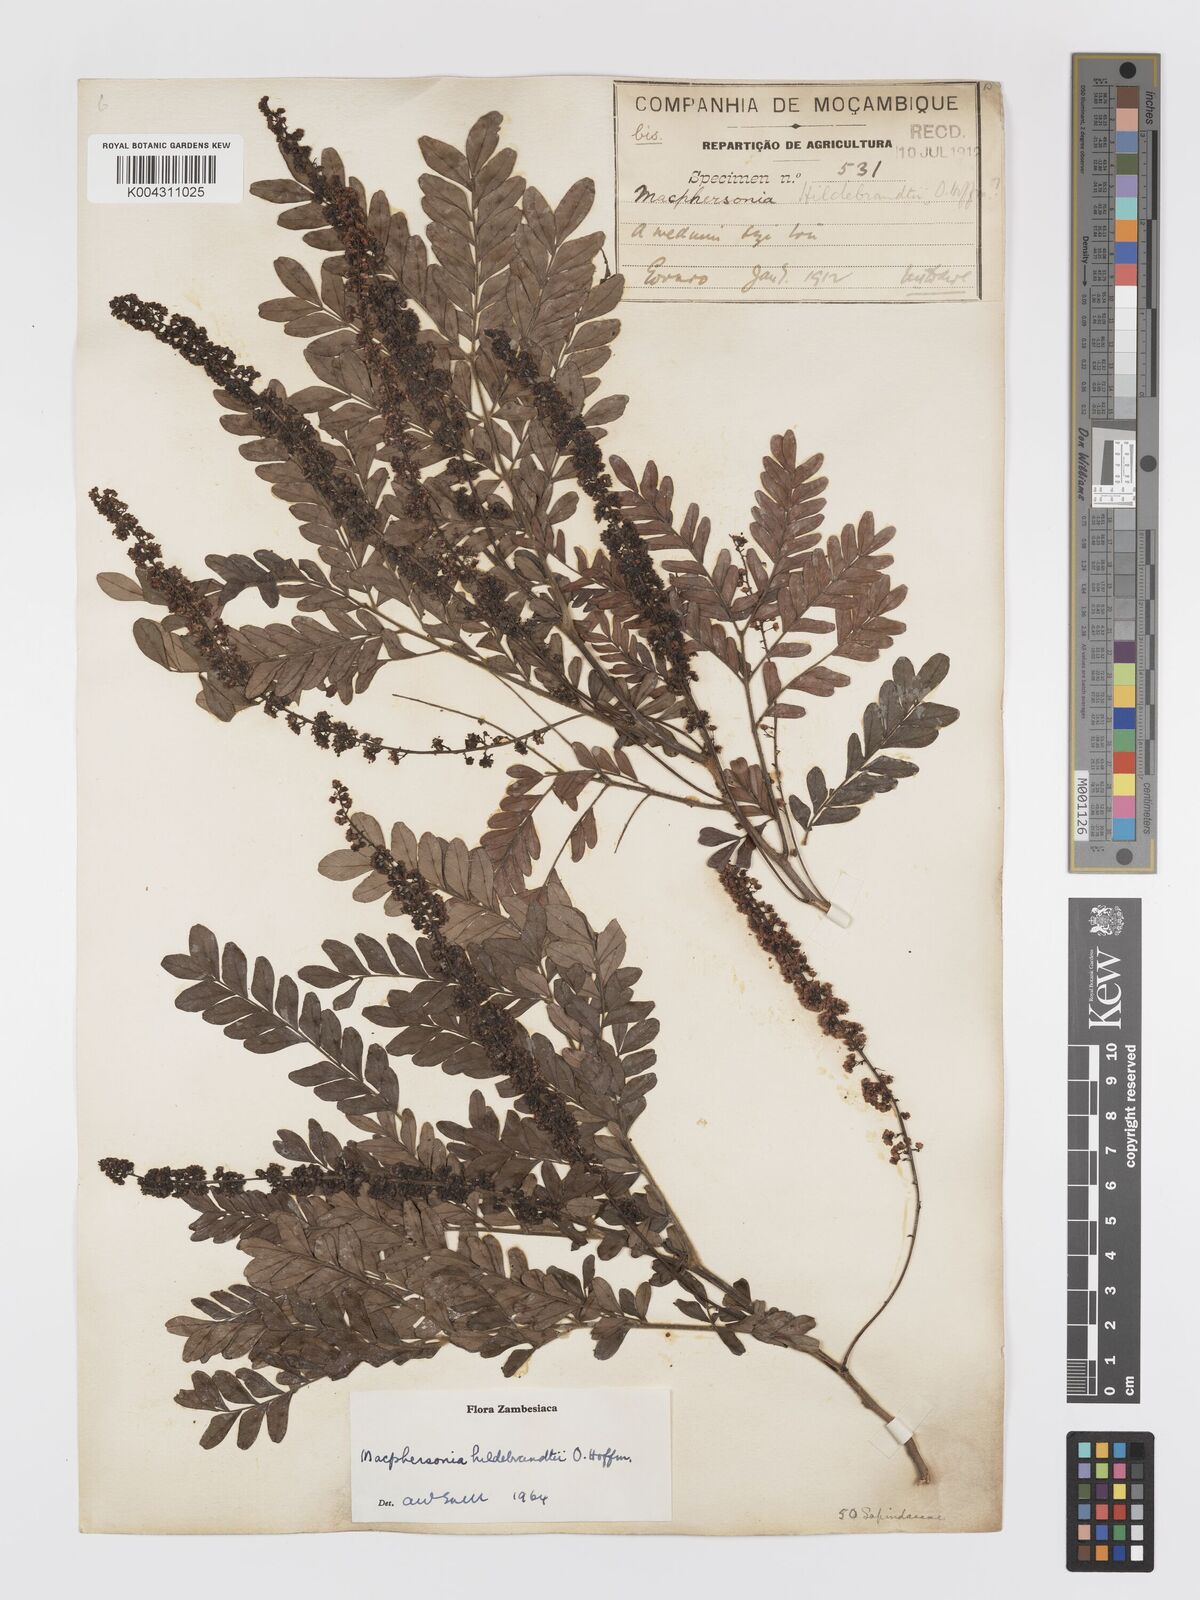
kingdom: Plantae
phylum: Tracheophyta
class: Magnoliopsida
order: Sapindales
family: Sapindaceae
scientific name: Sapindaceae
